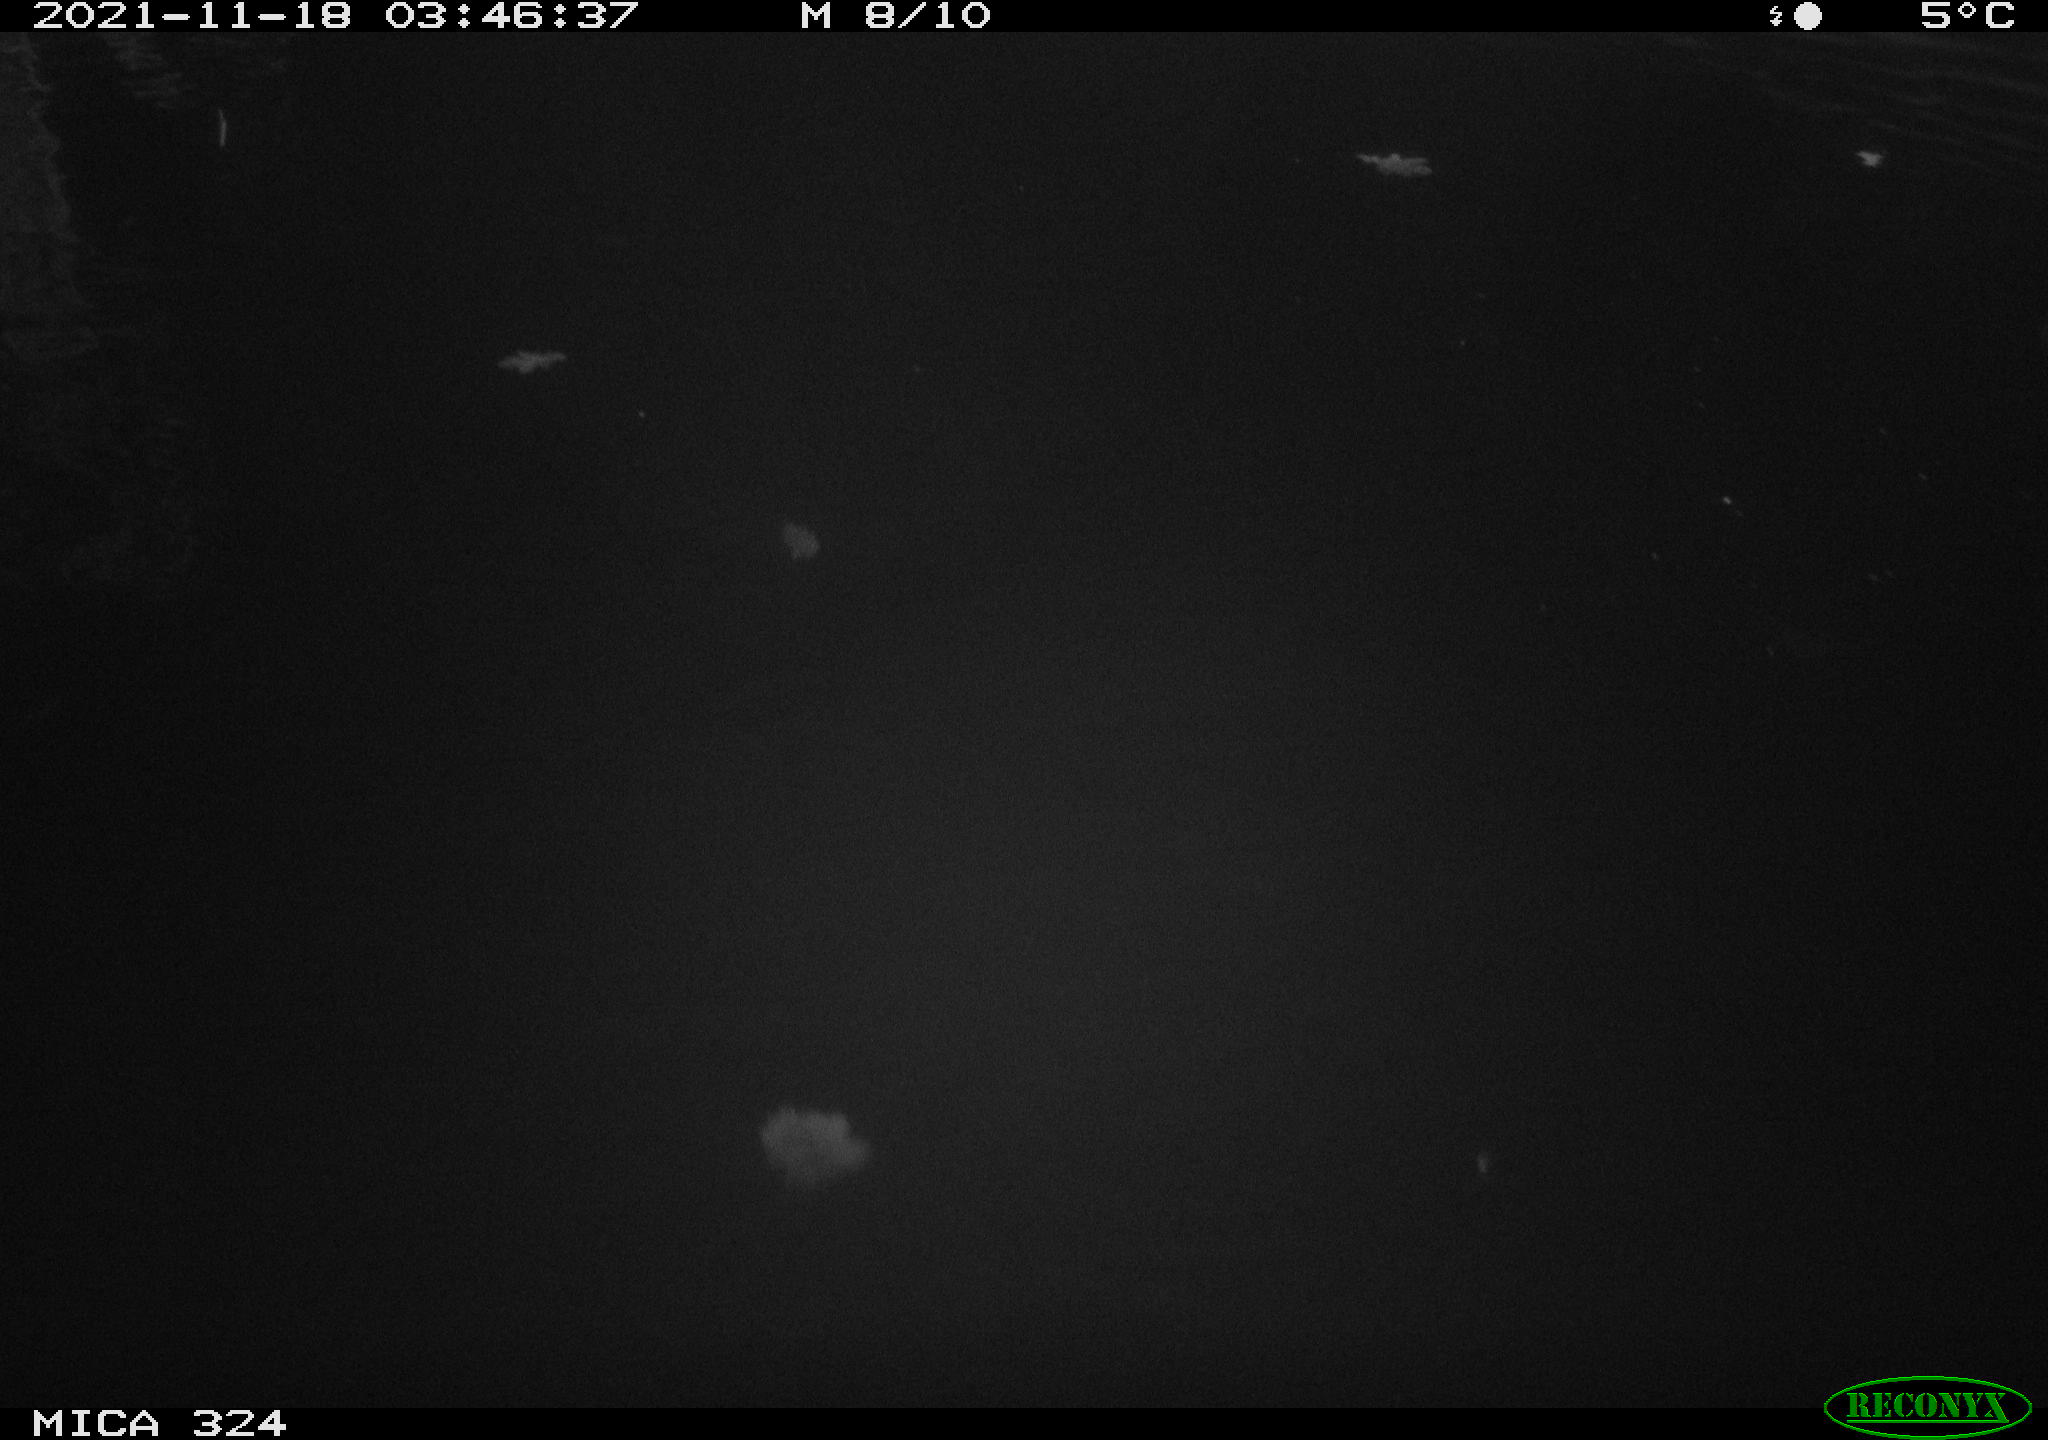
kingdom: Animalia
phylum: Chordata
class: Mammalia
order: Rodentia
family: Myocastoridae
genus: Myocastor
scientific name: Myocastor coypus
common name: Coypu
